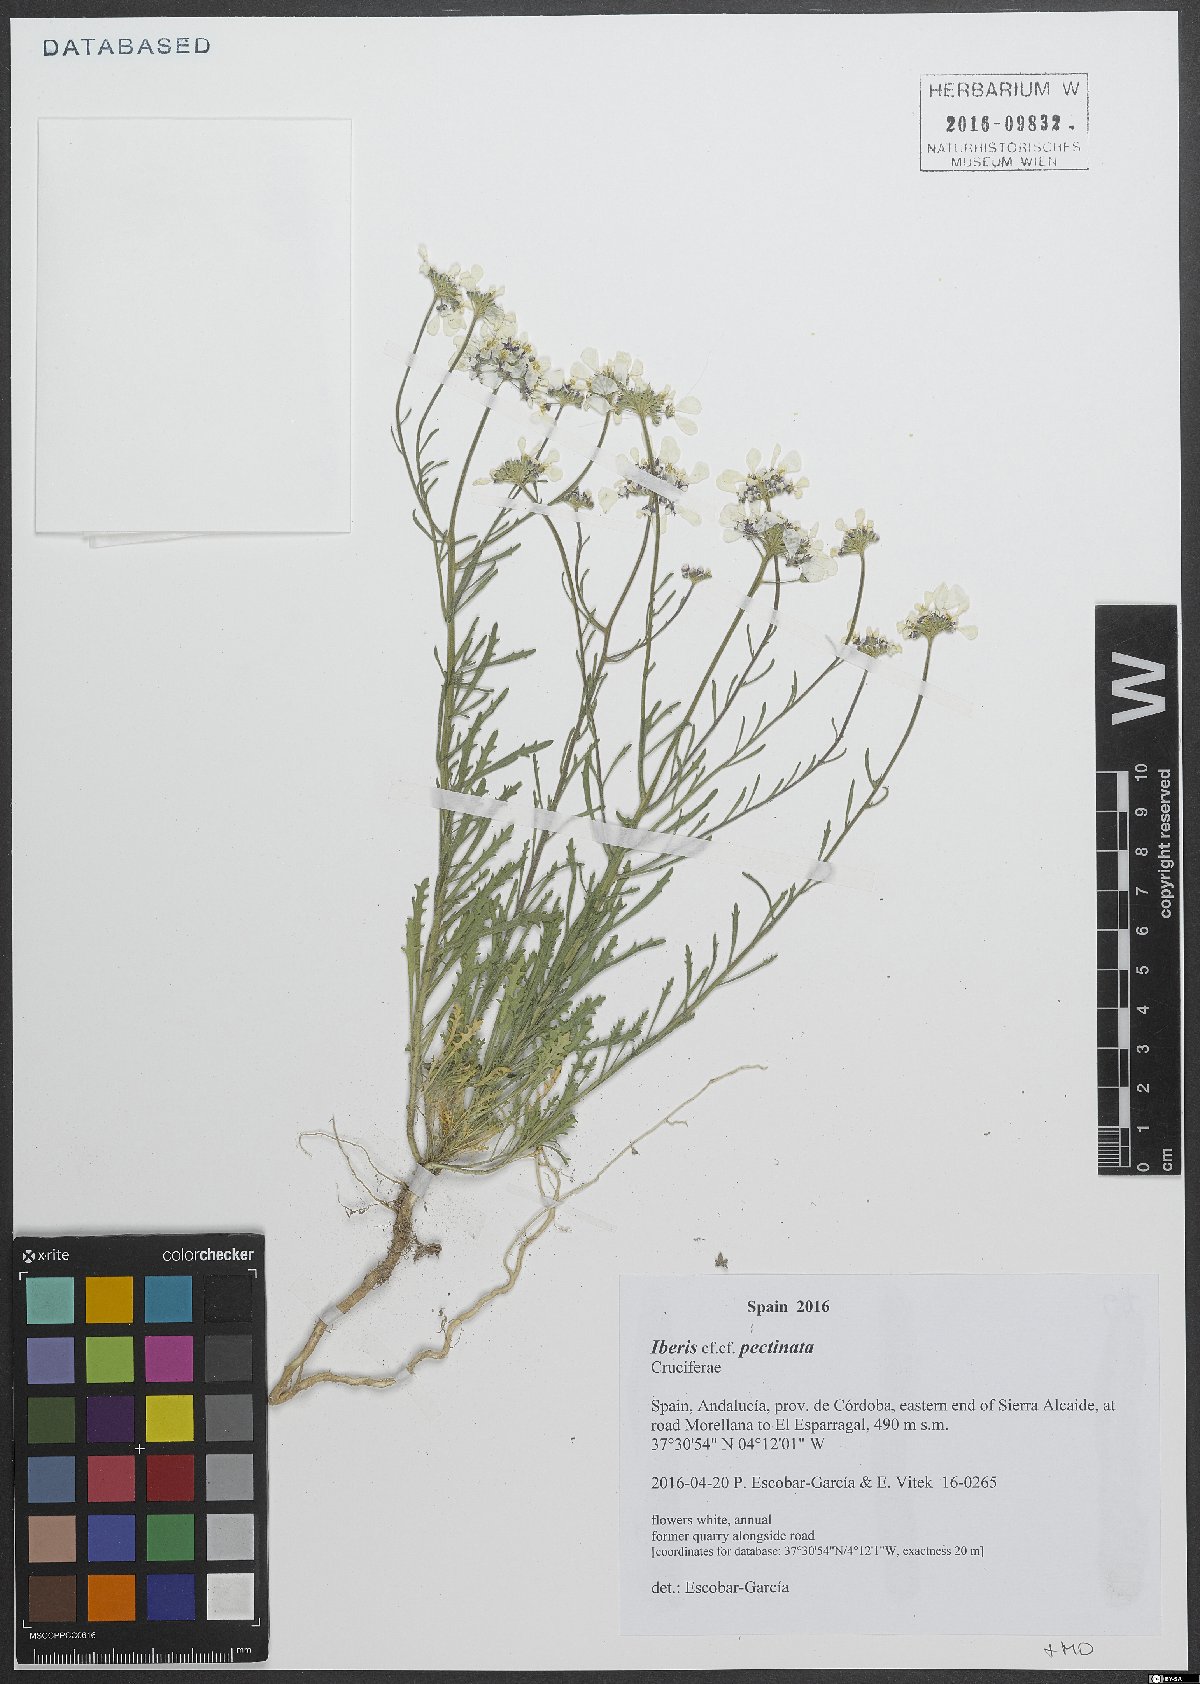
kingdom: Plantae
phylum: Tracheophyta
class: Magnoliopsida
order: Brassicales
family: Brassicaceae
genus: Iberis
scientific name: Iberis pectinata
